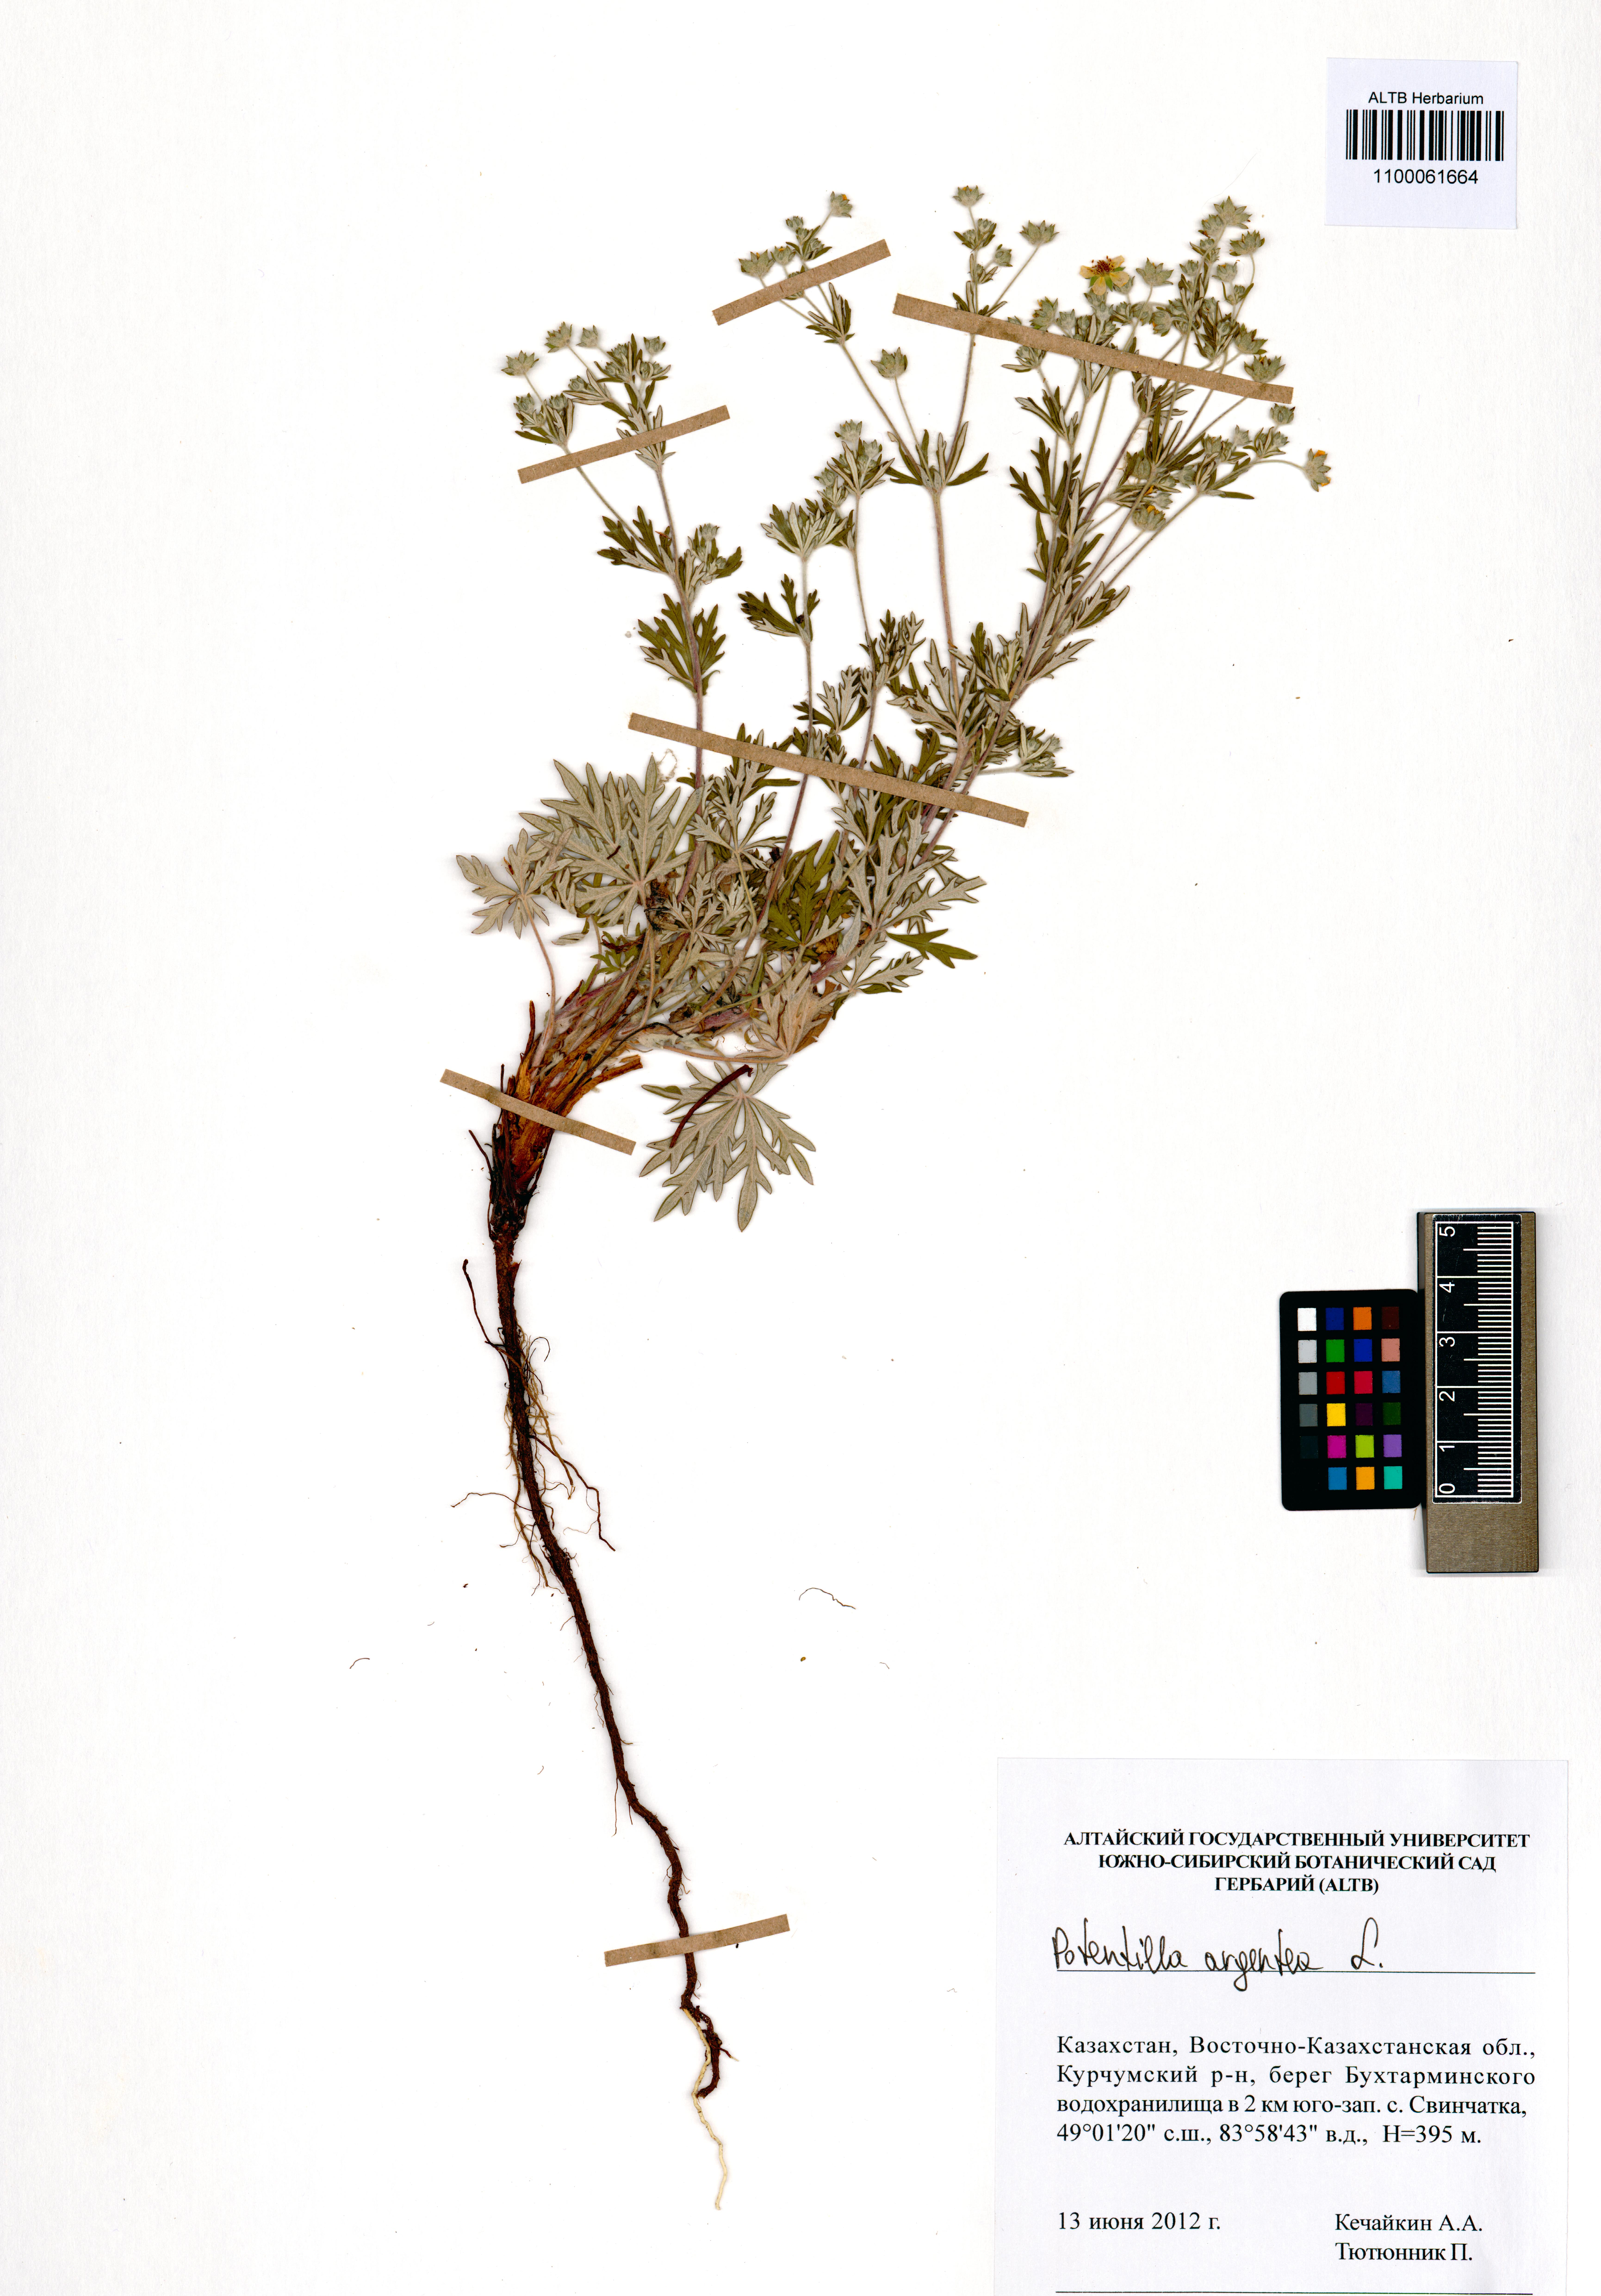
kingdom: Plantae
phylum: Tracheophyta
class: Magnoliopsida
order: Rosales
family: Rosaceae
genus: Potentilla
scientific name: Potentilla argentea
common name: Hoary cinquefoil
